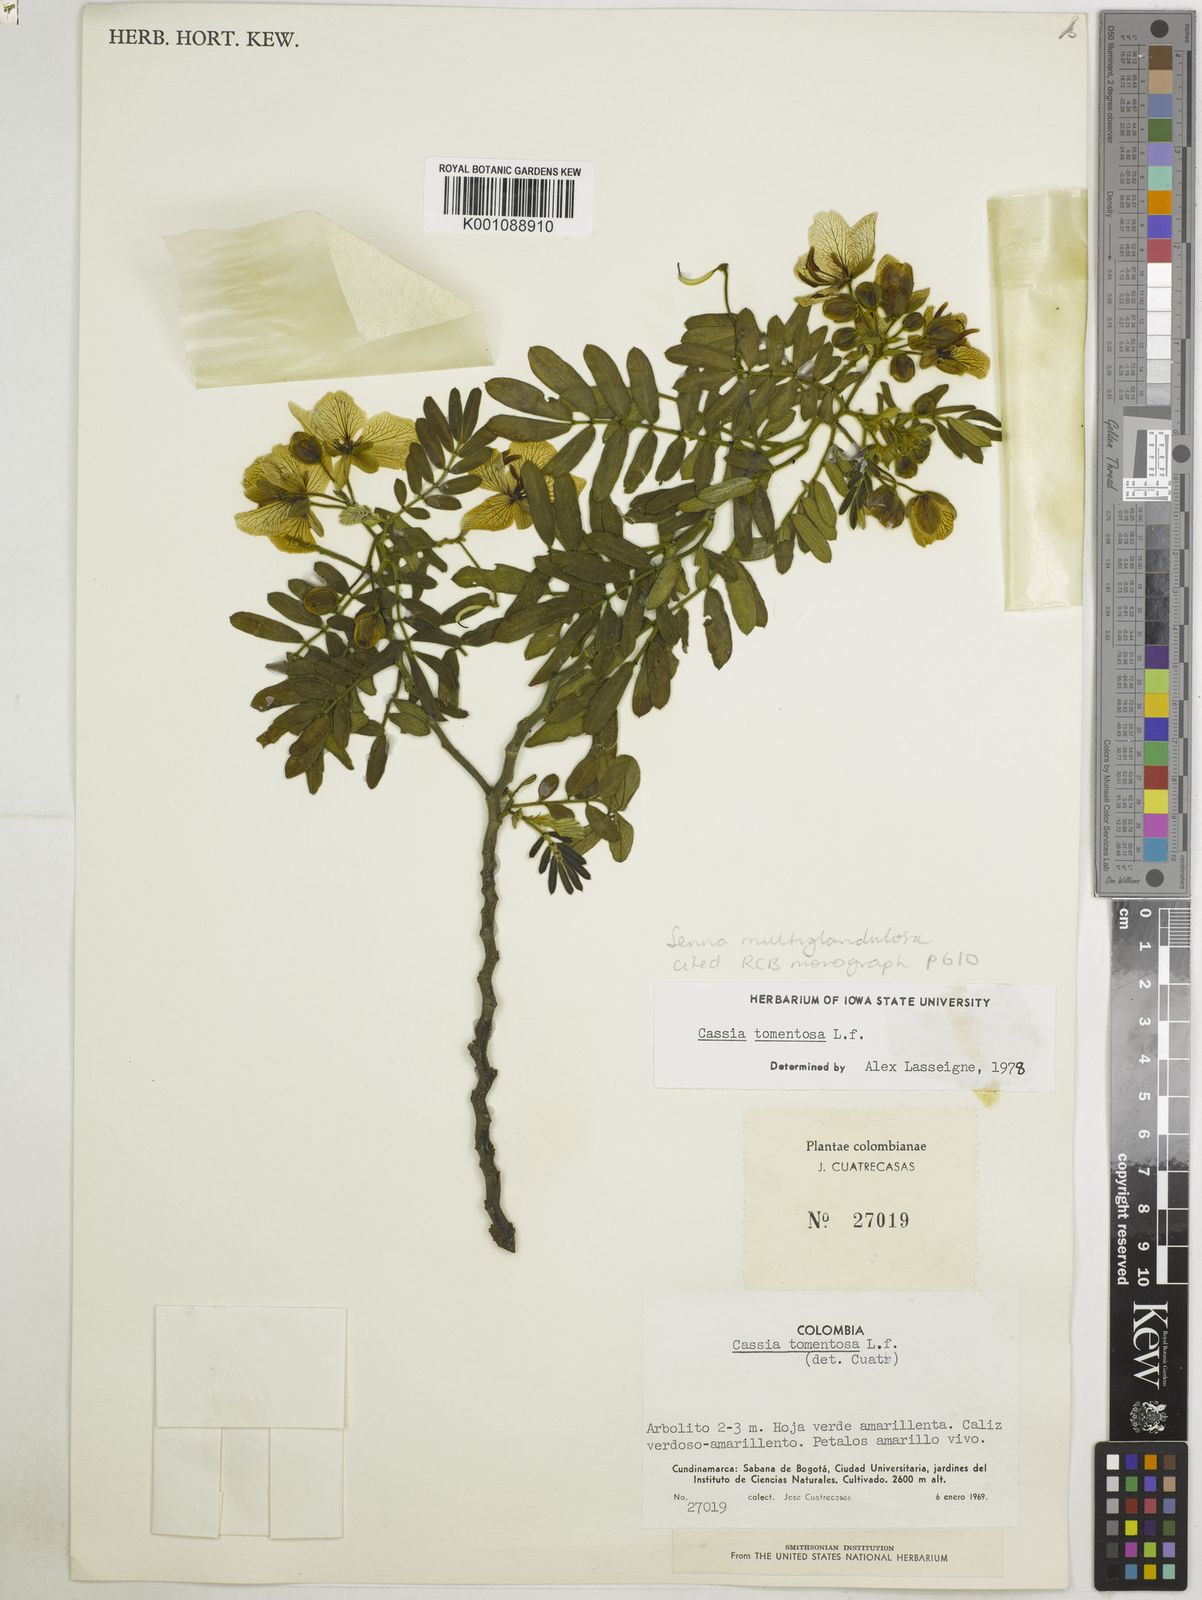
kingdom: Plantae
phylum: Tracheophyta
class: Magnoliopsida
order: Fabales
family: Fabaceae
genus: Senna
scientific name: Senna multiglandulosa
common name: Glandular senna
